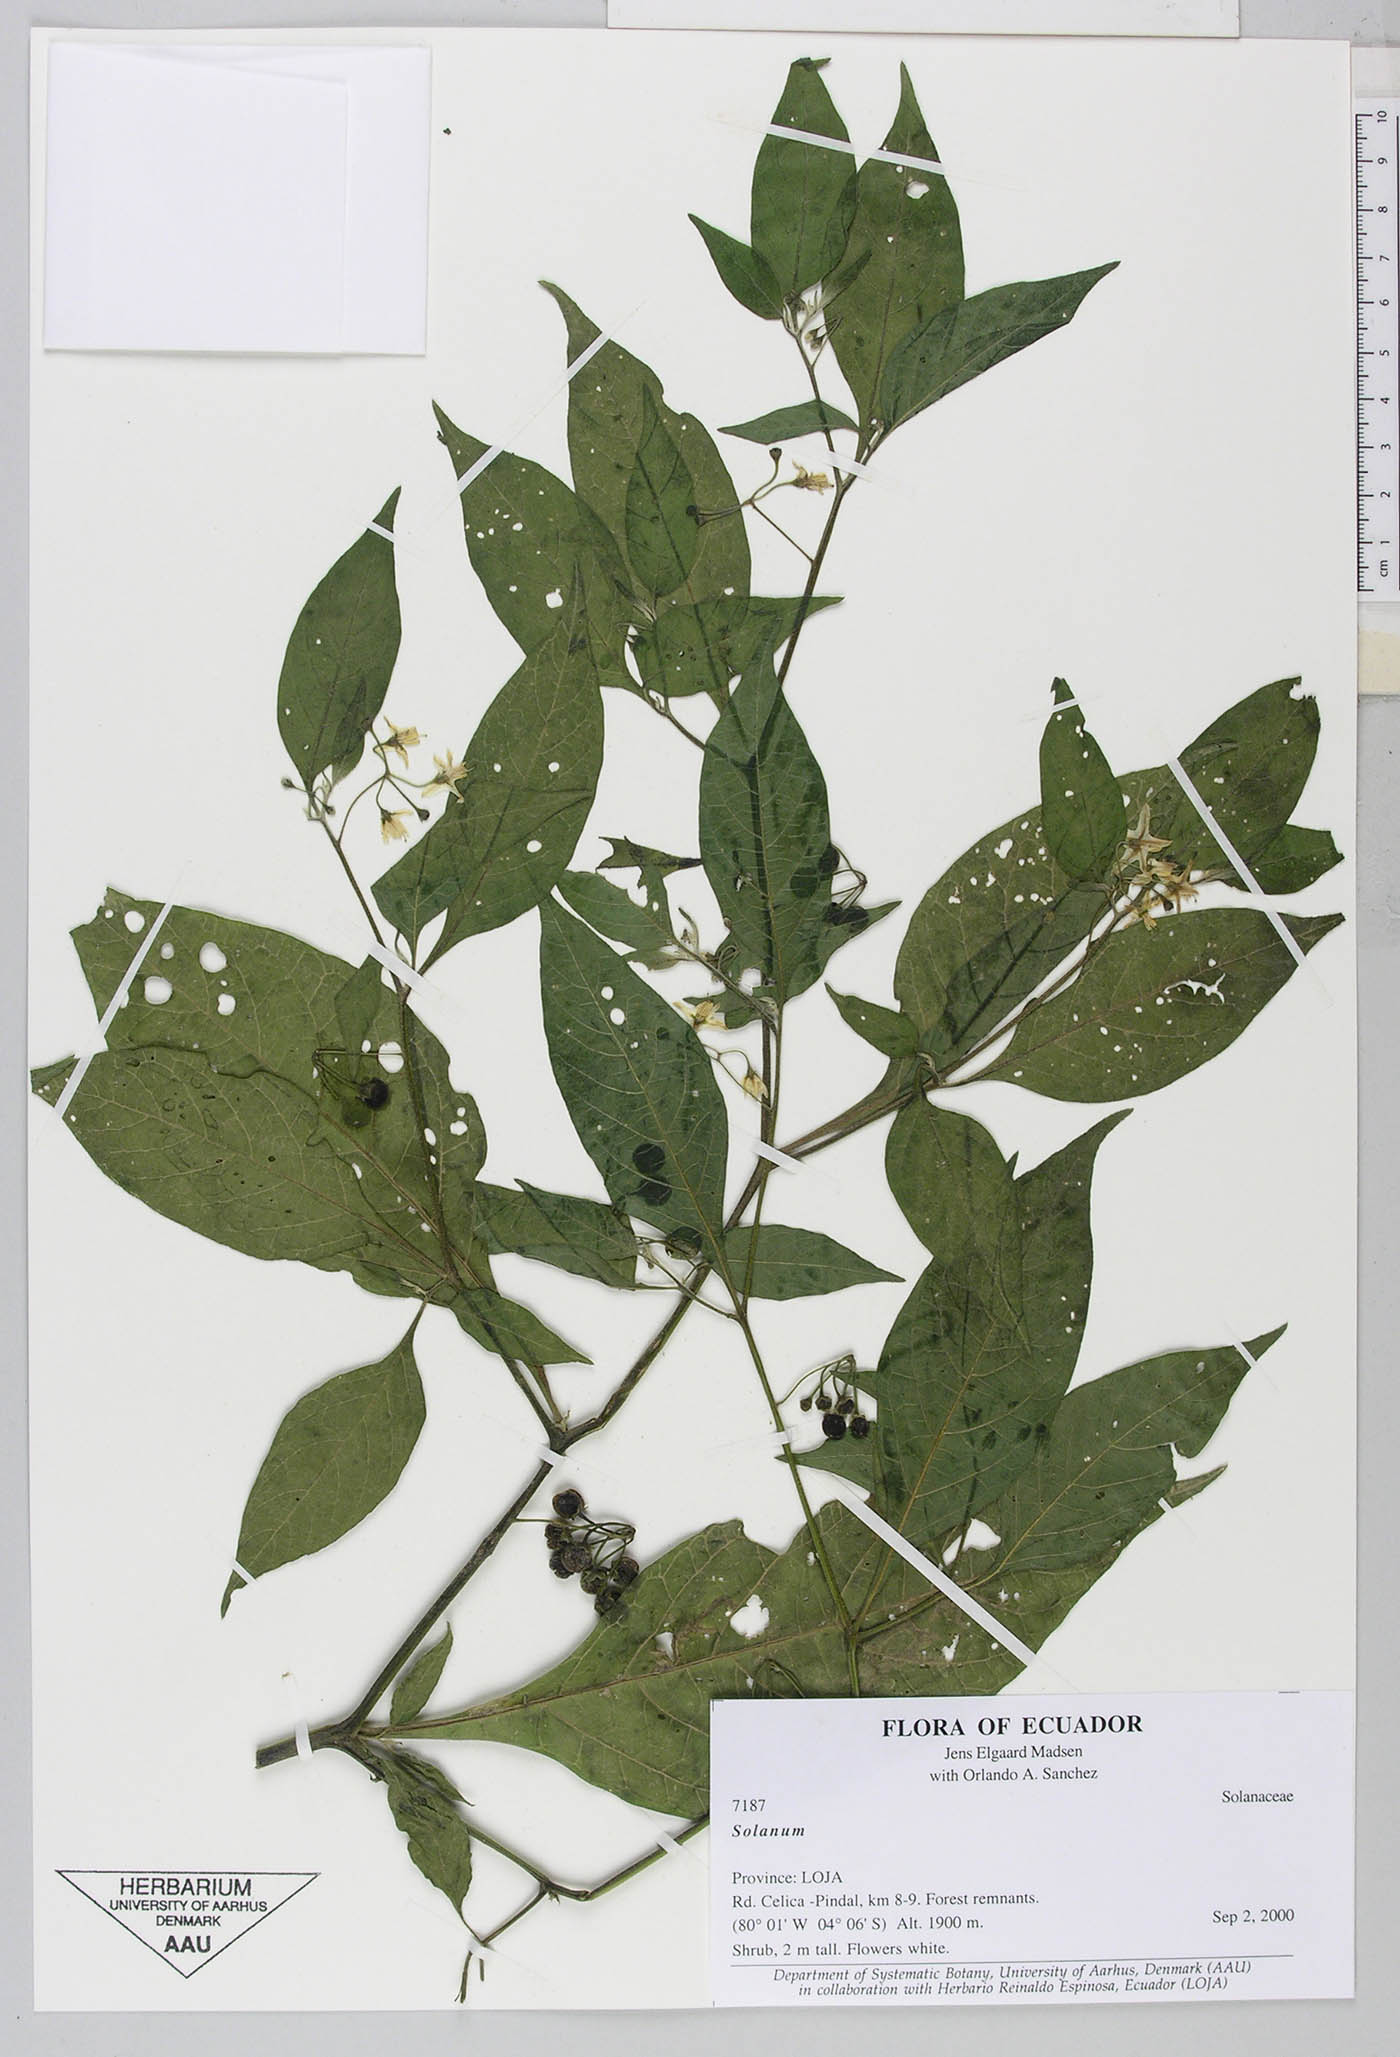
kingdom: Plantae
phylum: Tracheophyta
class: Magnoliopsida
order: Solanales
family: Solanaceae
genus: Solanum
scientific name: Solanum
